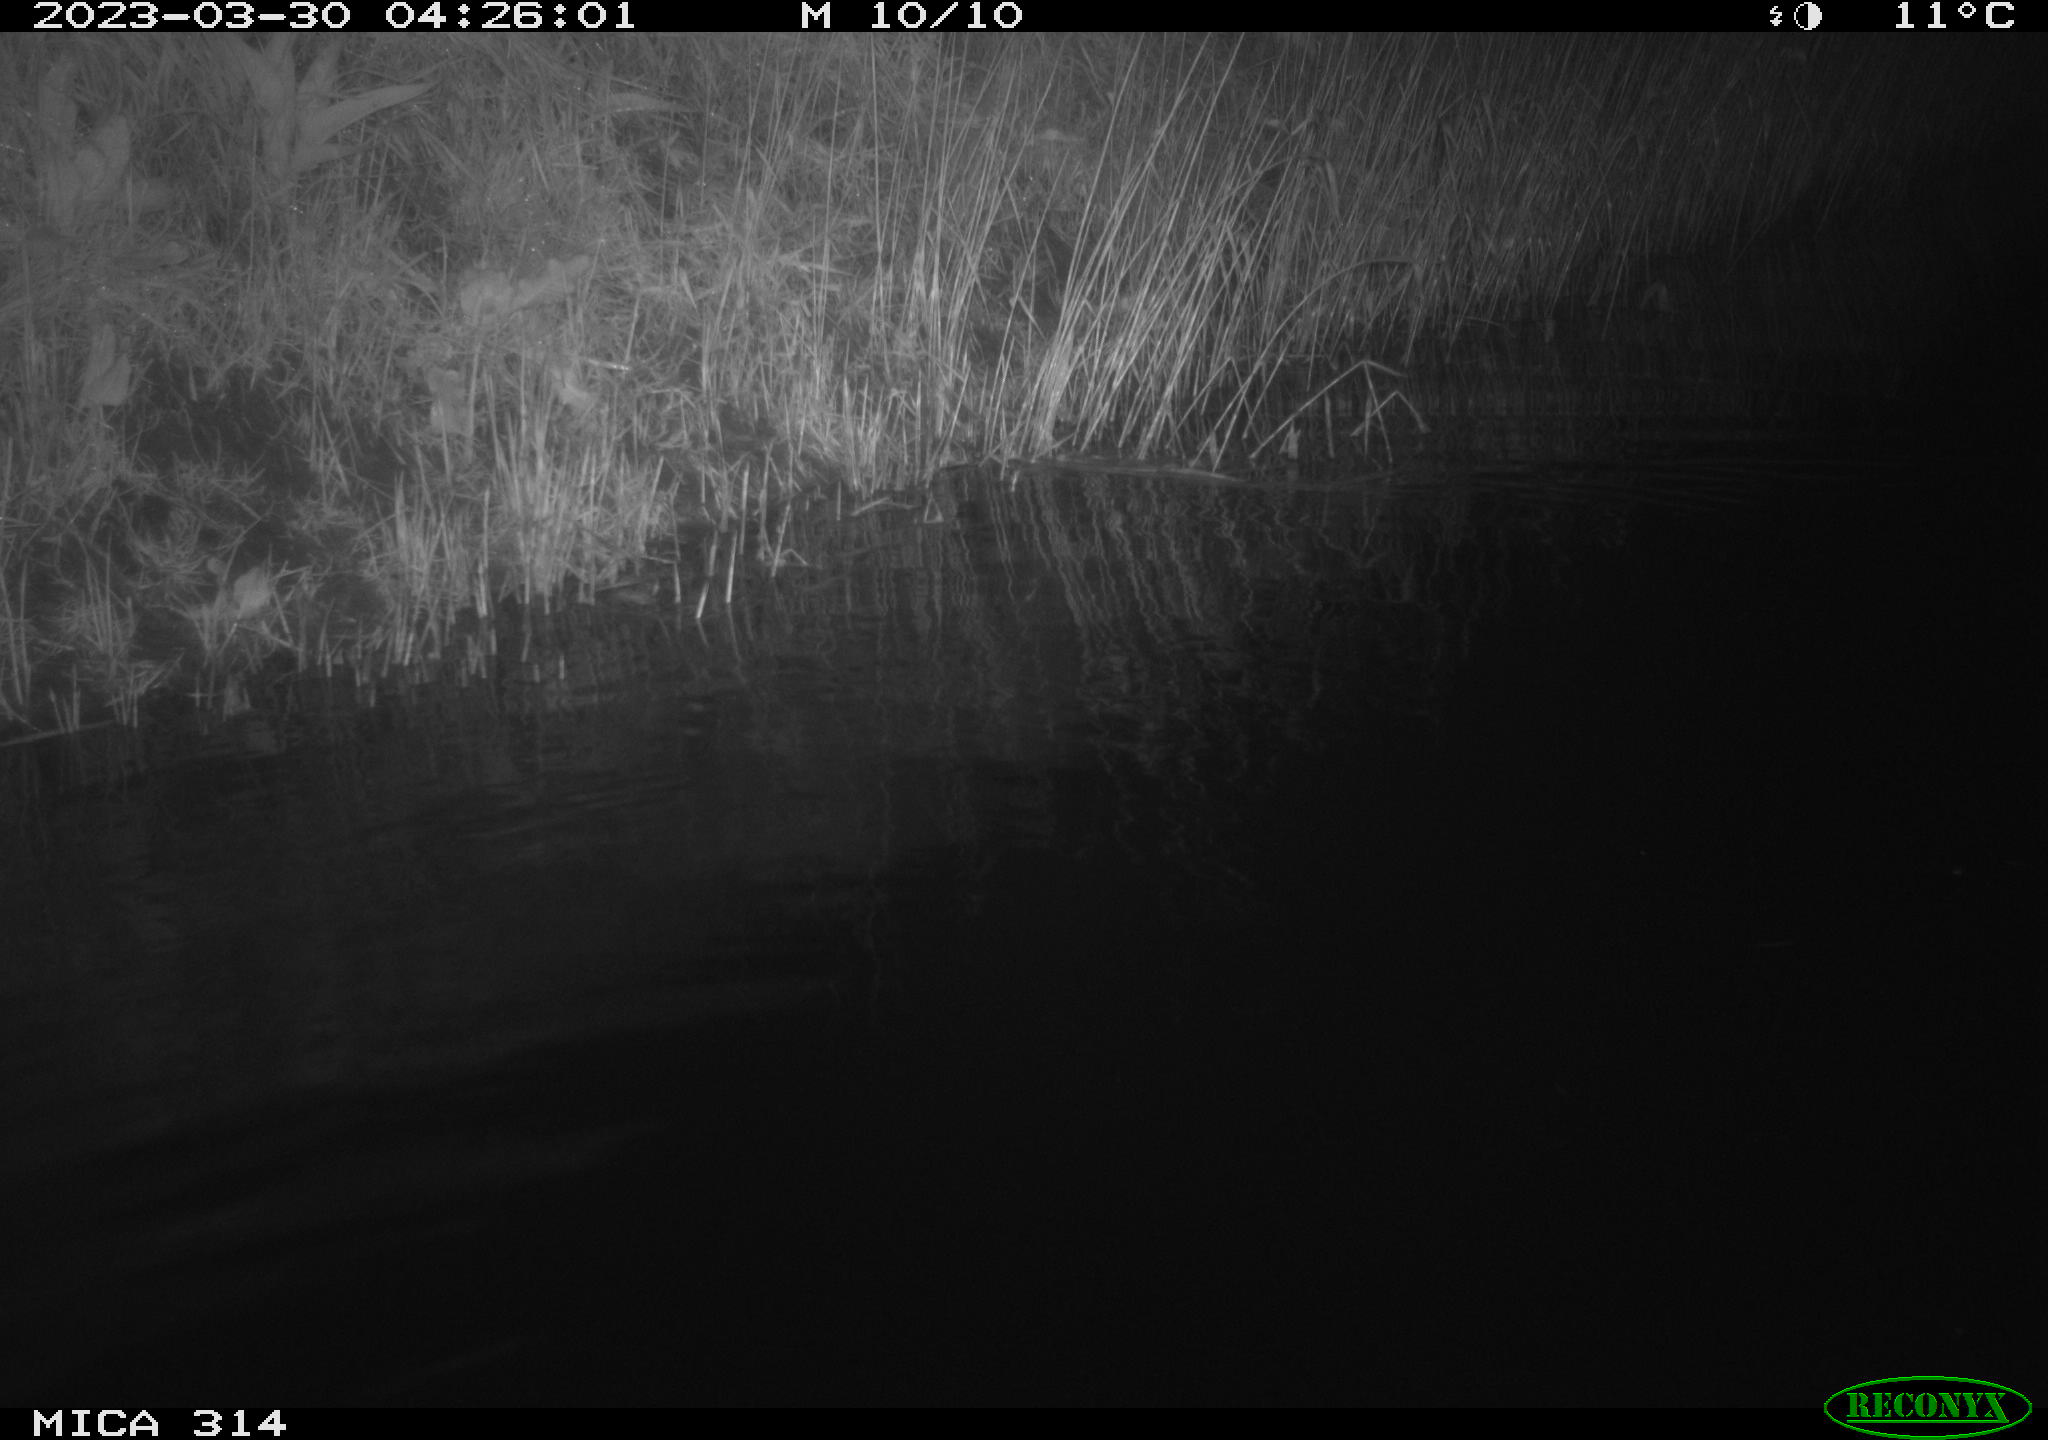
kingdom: Animalia
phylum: Chordata
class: Aves
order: Anseriformes
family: Anatidae
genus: Anas
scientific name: Anas
